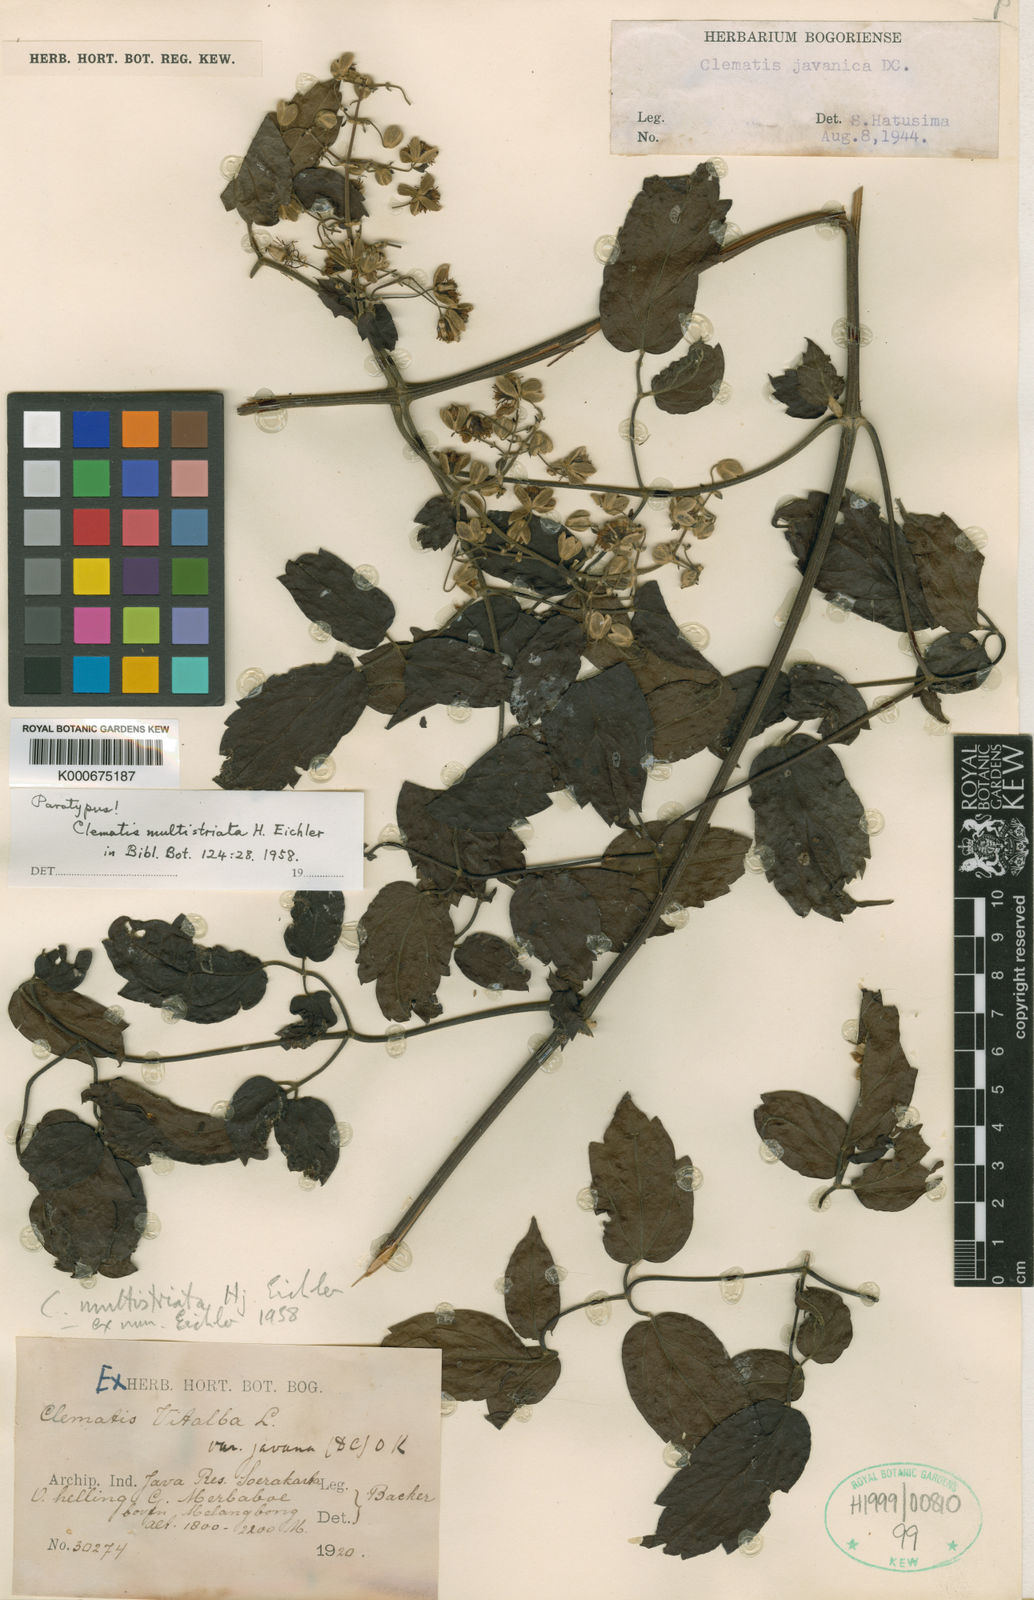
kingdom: Plantae
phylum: Tracheophyta
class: Magnoliopsida
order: Ranunculales
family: Ranunculaceae
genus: Clematis
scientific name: Clematis multistriata
